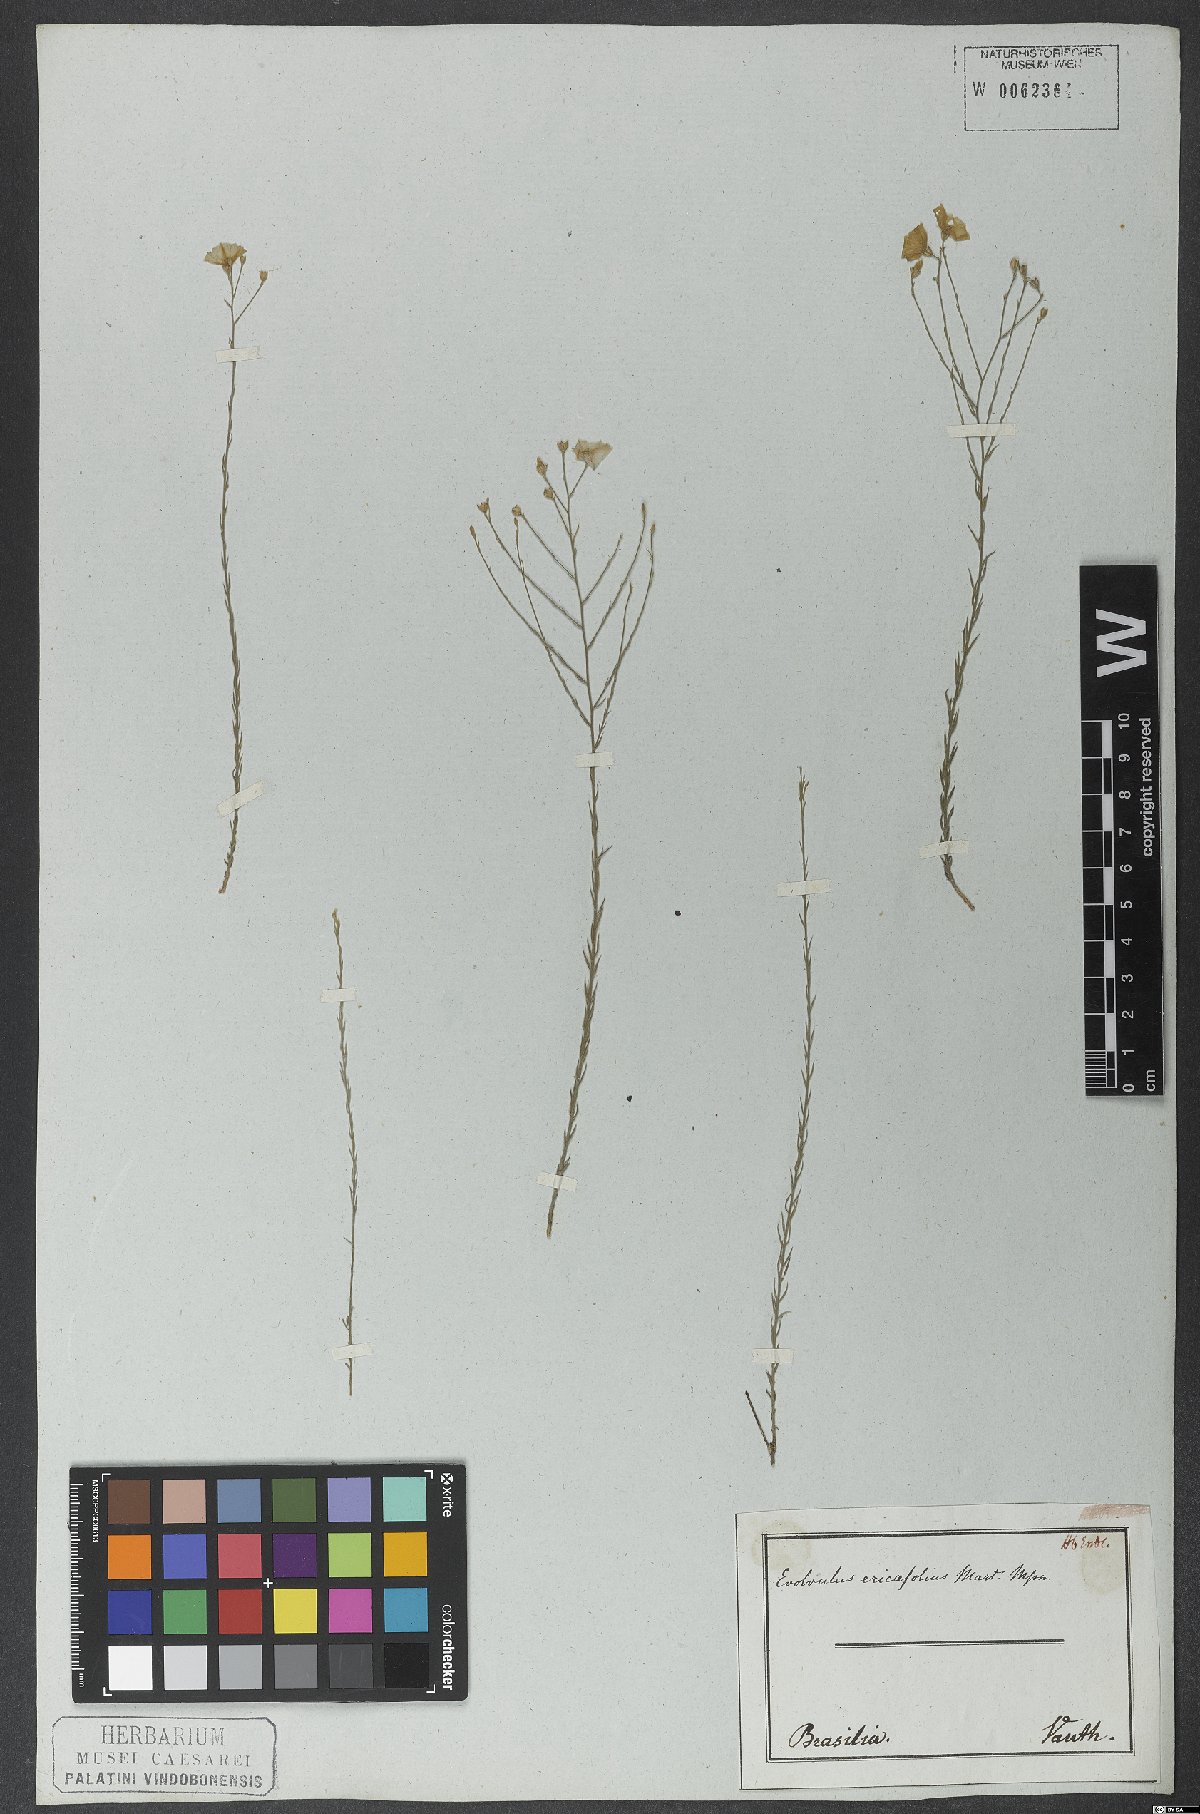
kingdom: Plantae
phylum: Tracheophyta
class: Magnoliopsida
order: Solanales
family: Convolvulaceae
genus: Evolvulus
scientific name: Evolvulus gypsophiloides
